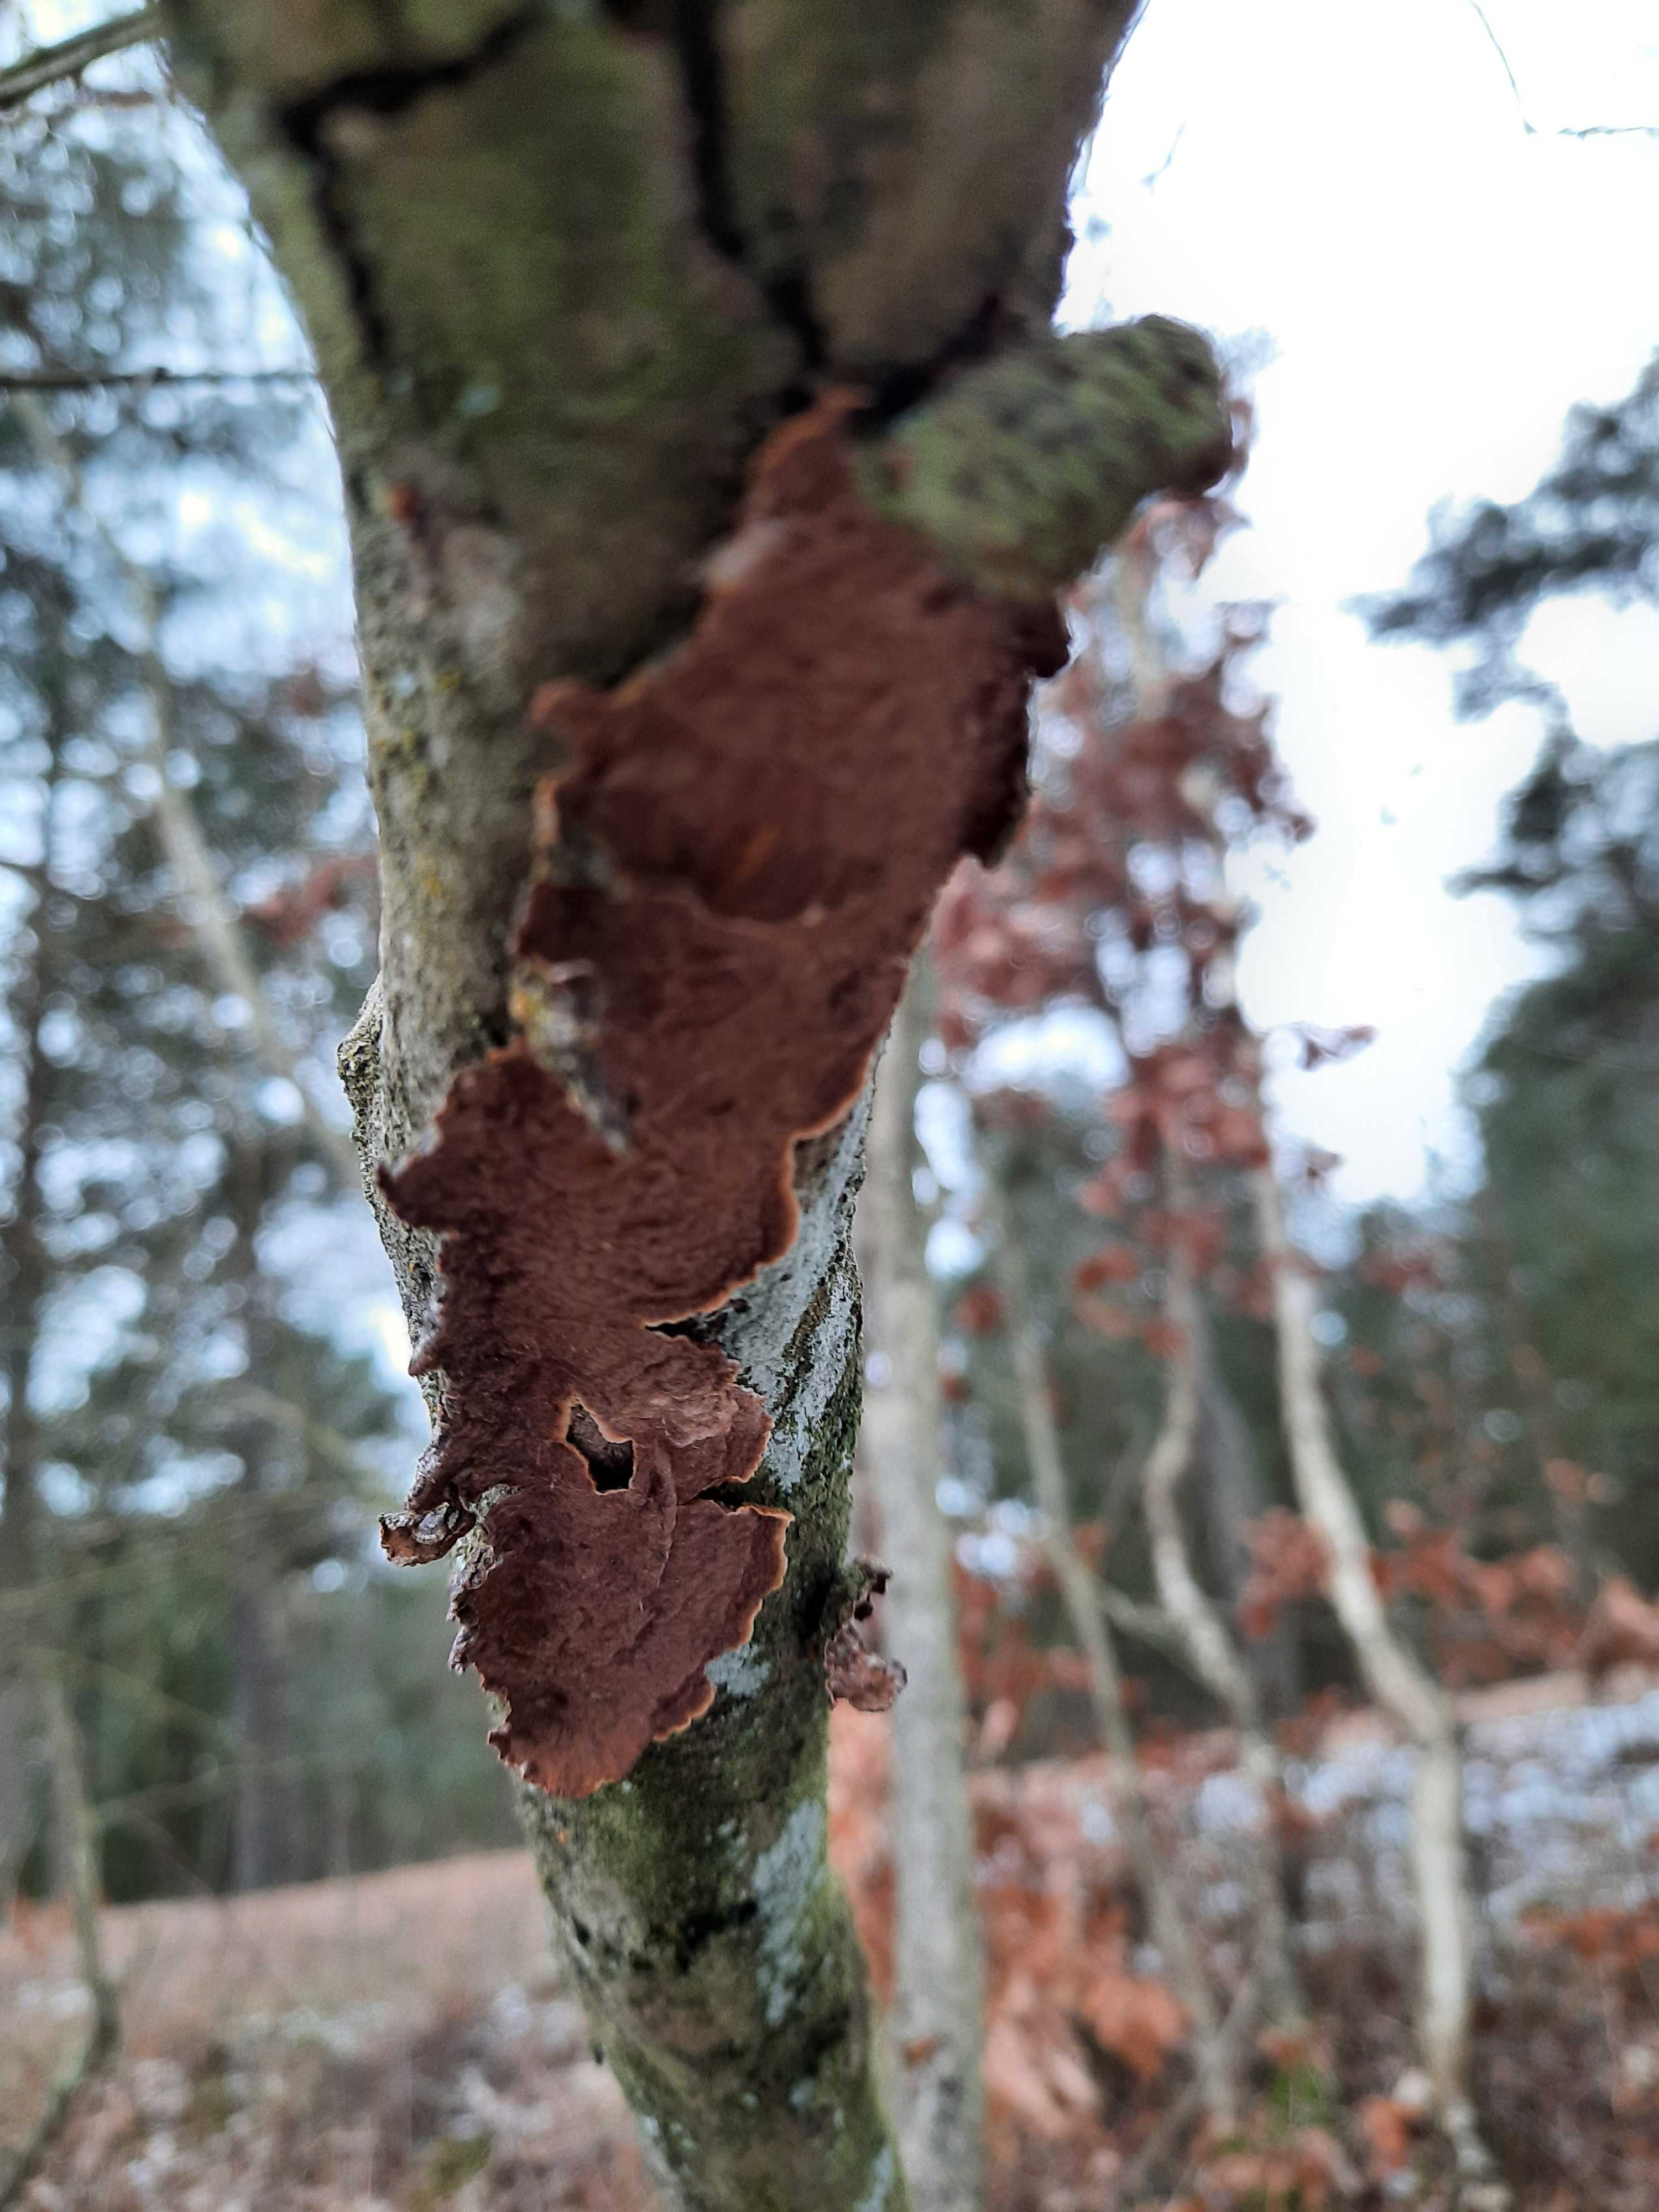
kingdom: Fungi
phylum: Basidiomycota
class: Agaricomycetes
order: Hymenochaetales
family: Hymenochaetaceae
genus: Hydnoporia
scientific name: Hydnoporia tabacina
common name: tobaksbrun ruslædersvamp
